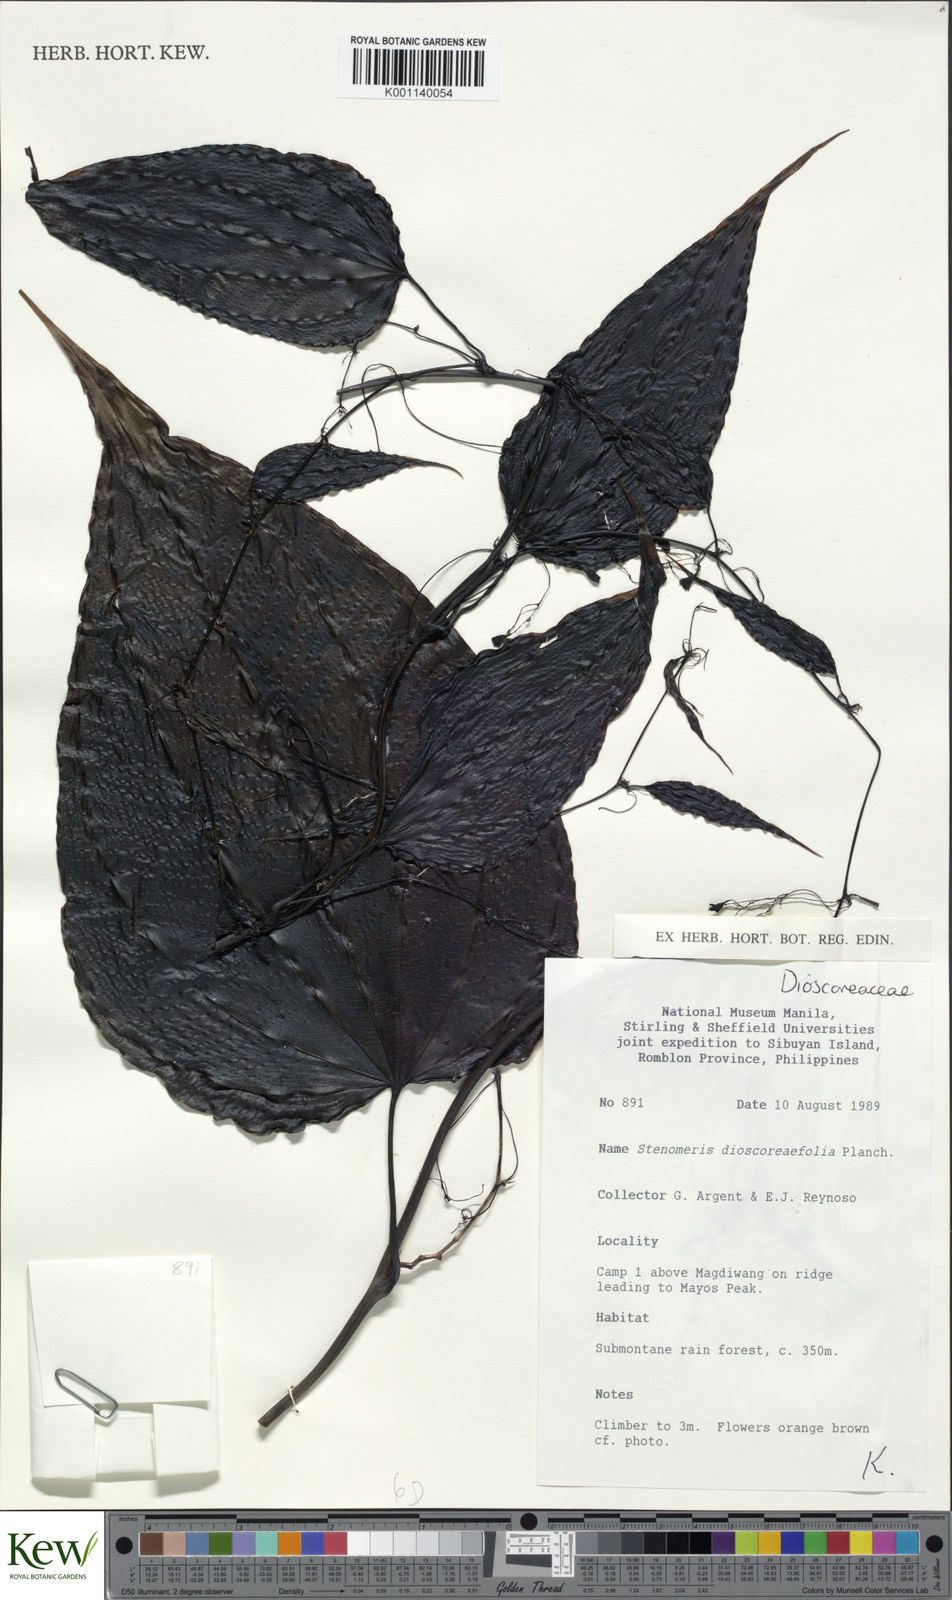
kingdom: Plantae
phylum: Tracheophyta
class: Liliopsida
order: Dioscoreales
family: Dioscoreaceae
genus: Stenomeris
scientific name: Stenomeris dioscoreifolia
